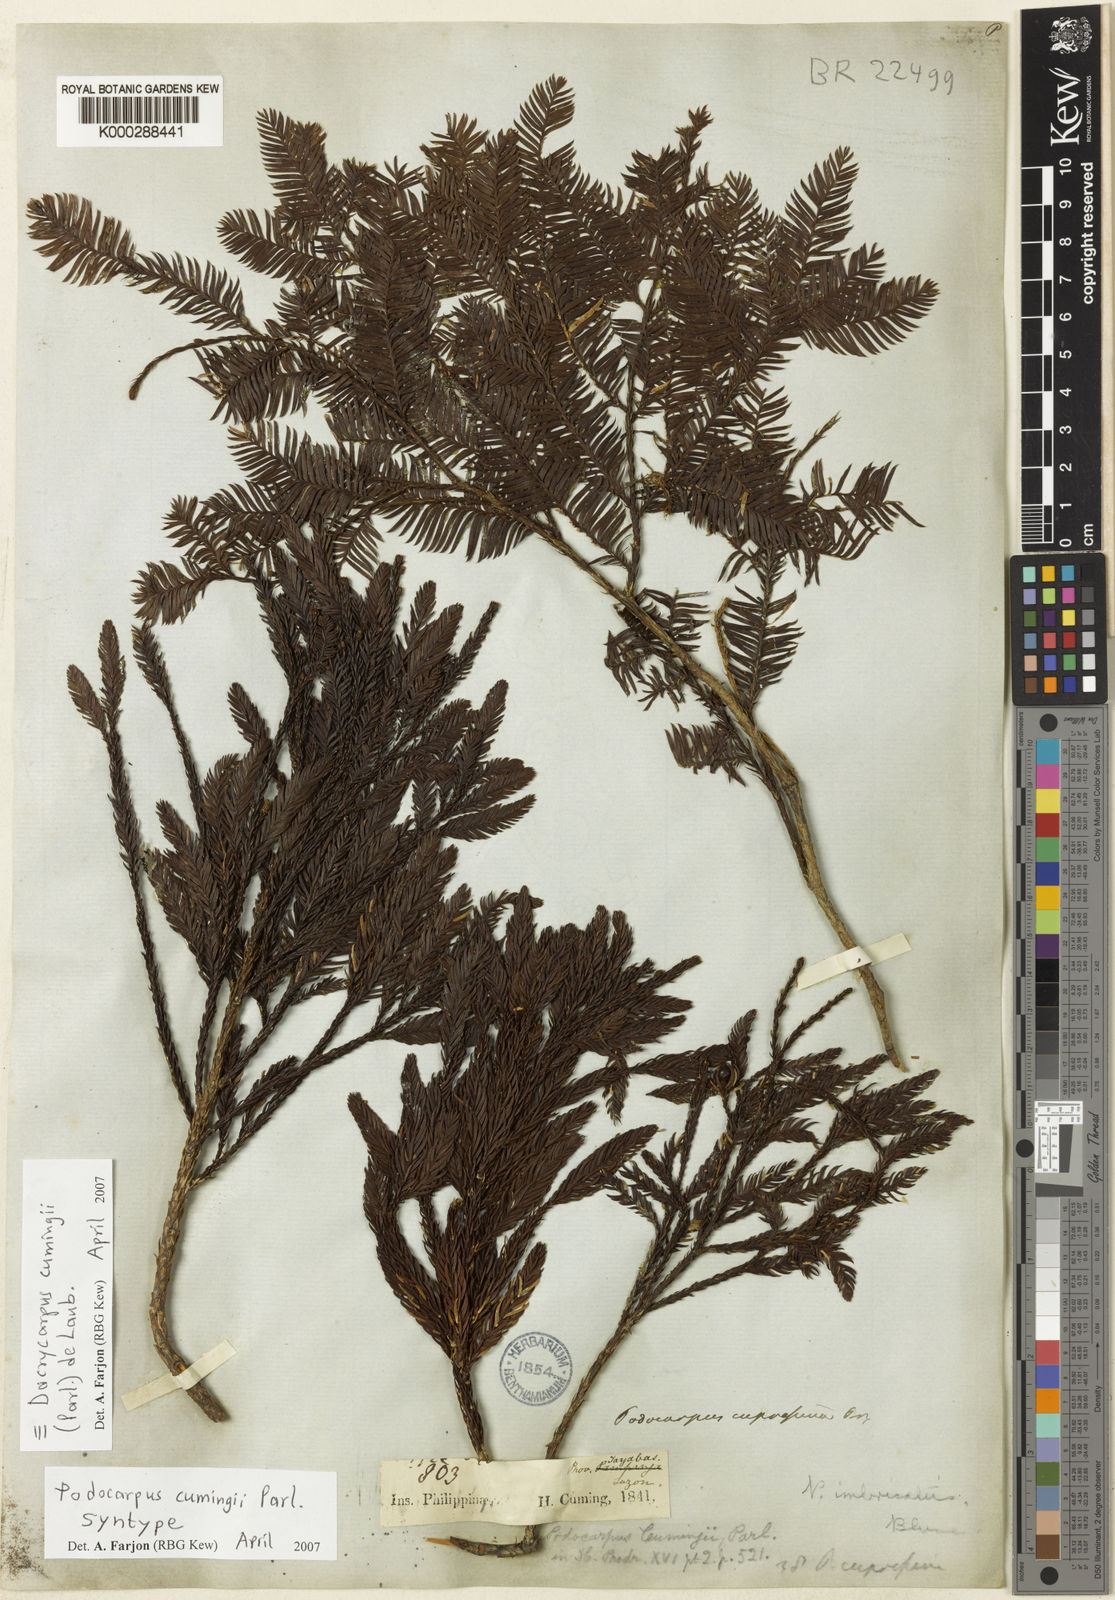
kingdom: Plantae
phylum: Tracheophyta
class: Pinopsida
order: Pinales
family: Podocarpaceae
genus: Dacrycarpus
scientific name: Dacrycarpus cumingii
